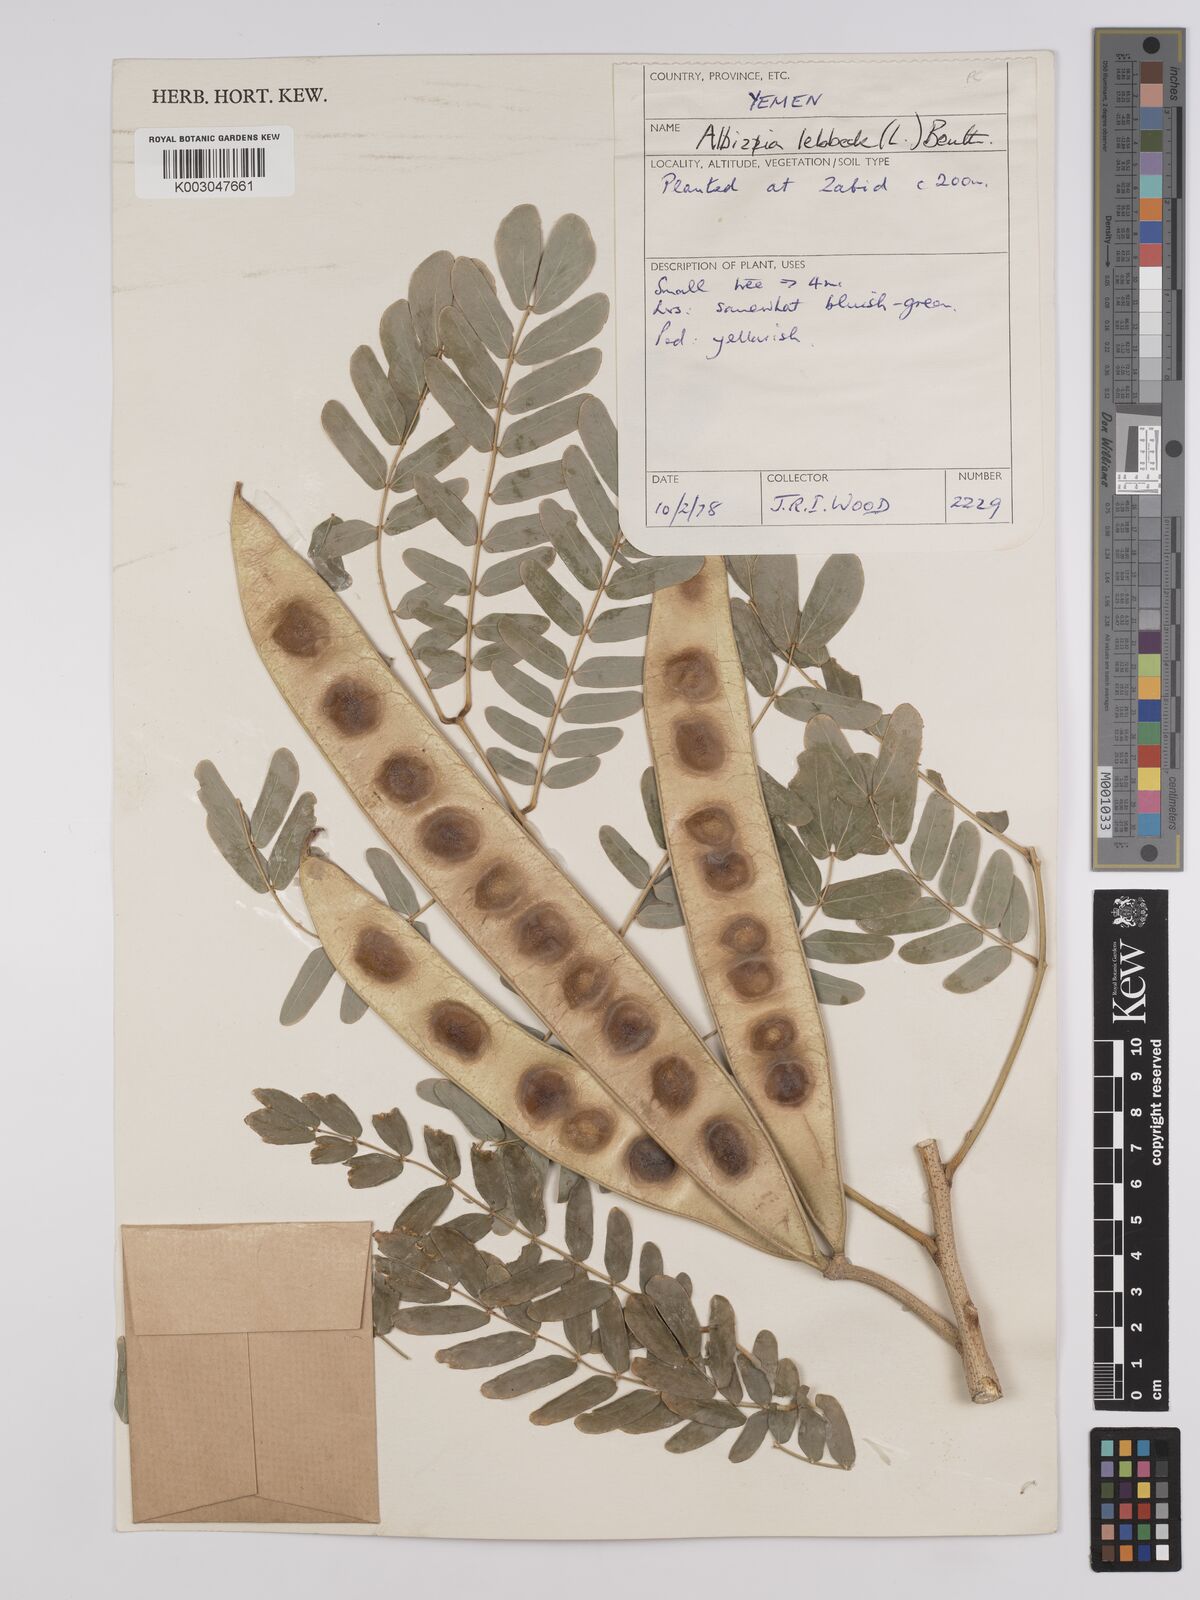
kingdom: Plantae
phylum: Tracheophyta
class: Magnoliopsida
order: Fabales
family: Fabaceae
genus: Albizia
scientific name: Albizia lebbeck
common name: Woman's tongue
